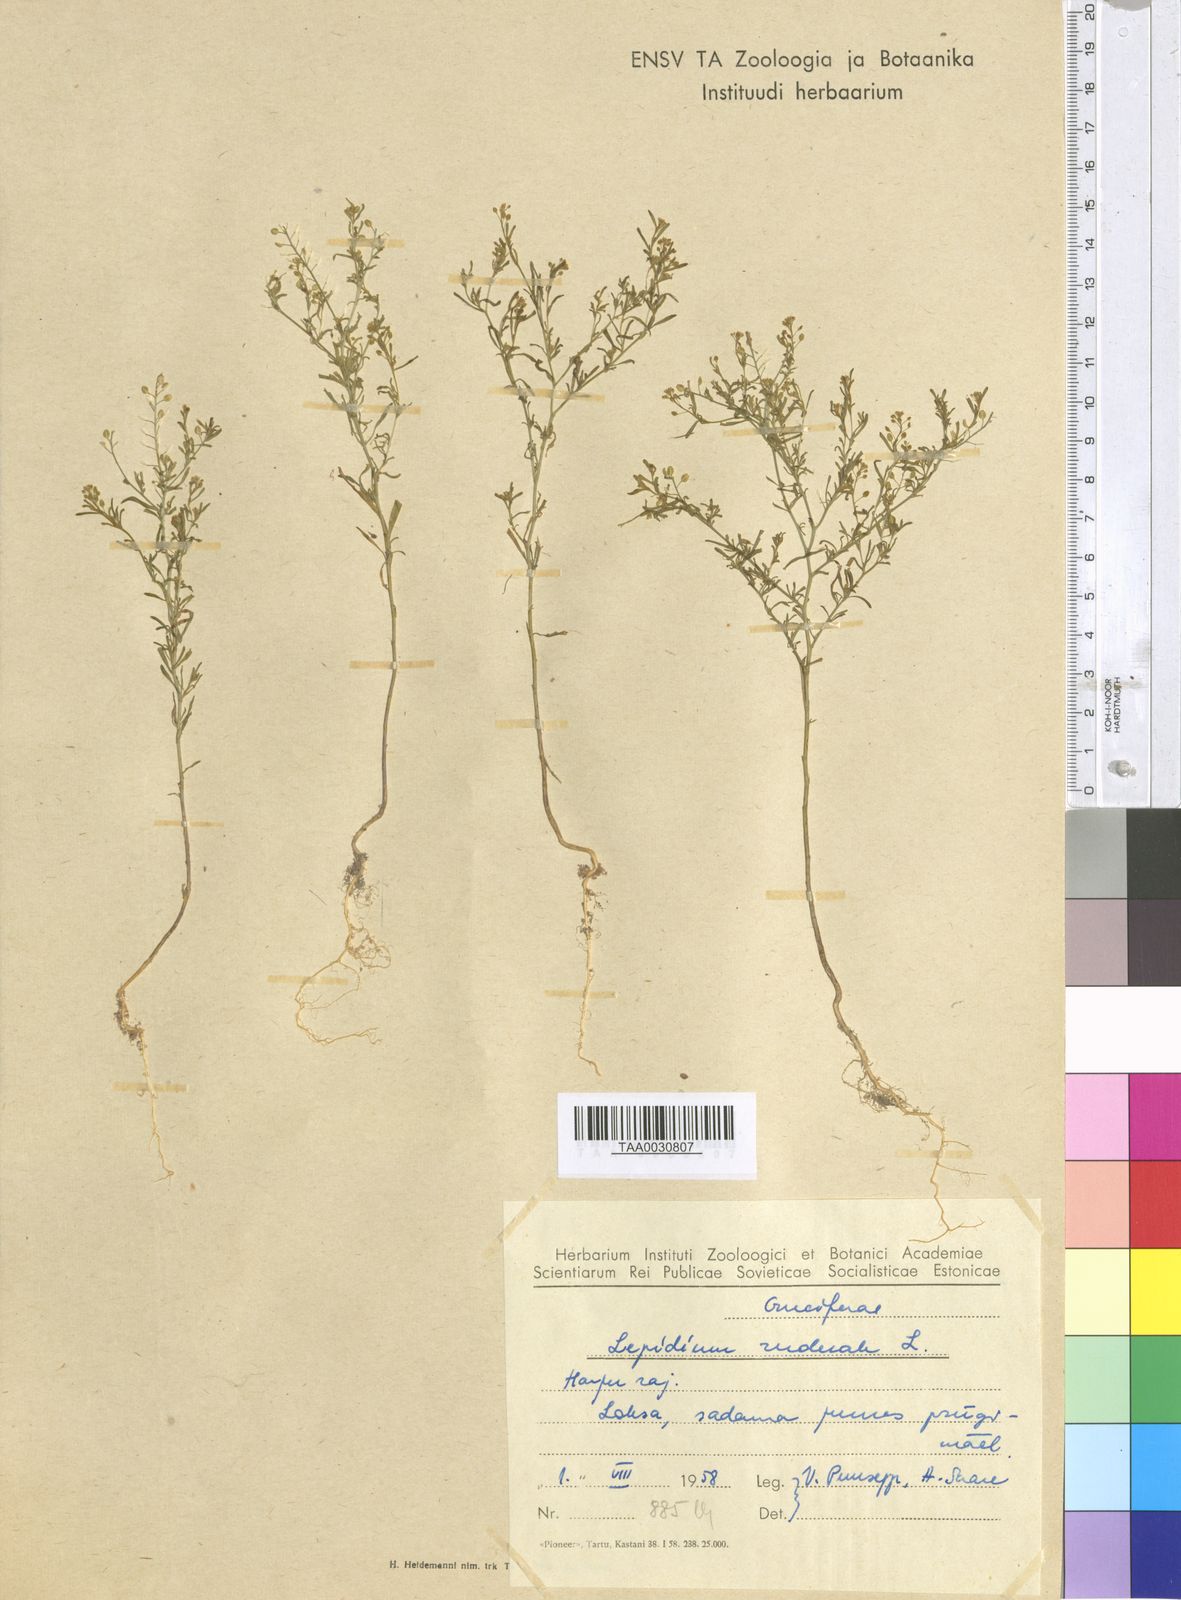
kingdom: Plantae
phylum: Tracheophyta
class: Magnoliopsida
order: Brassicales
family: Brassicaceae
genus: Lepidium
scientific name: Lepidium ruderale
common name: Narrow-leaved pepperwort
